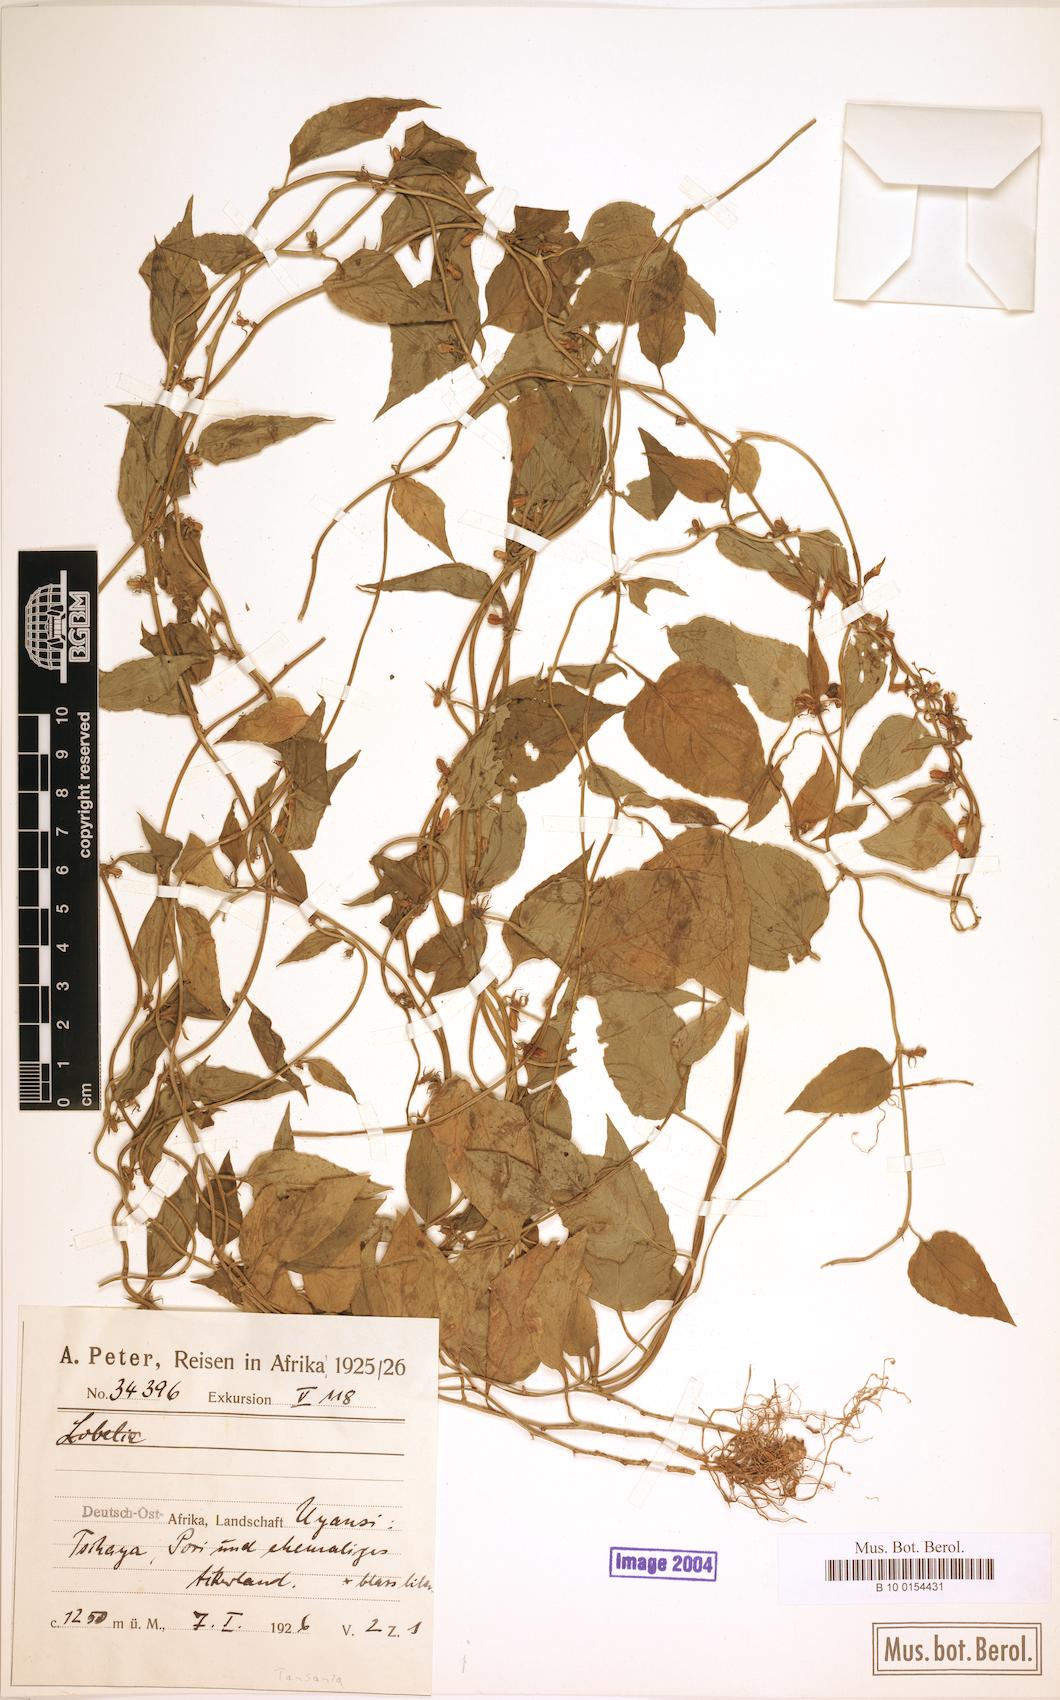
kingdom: Plantae
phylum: Tracheophyta
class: Magnoliopsida
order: Asterales
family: Campanulaceae
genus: Cyphia
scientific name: Cyphia lasiandra
